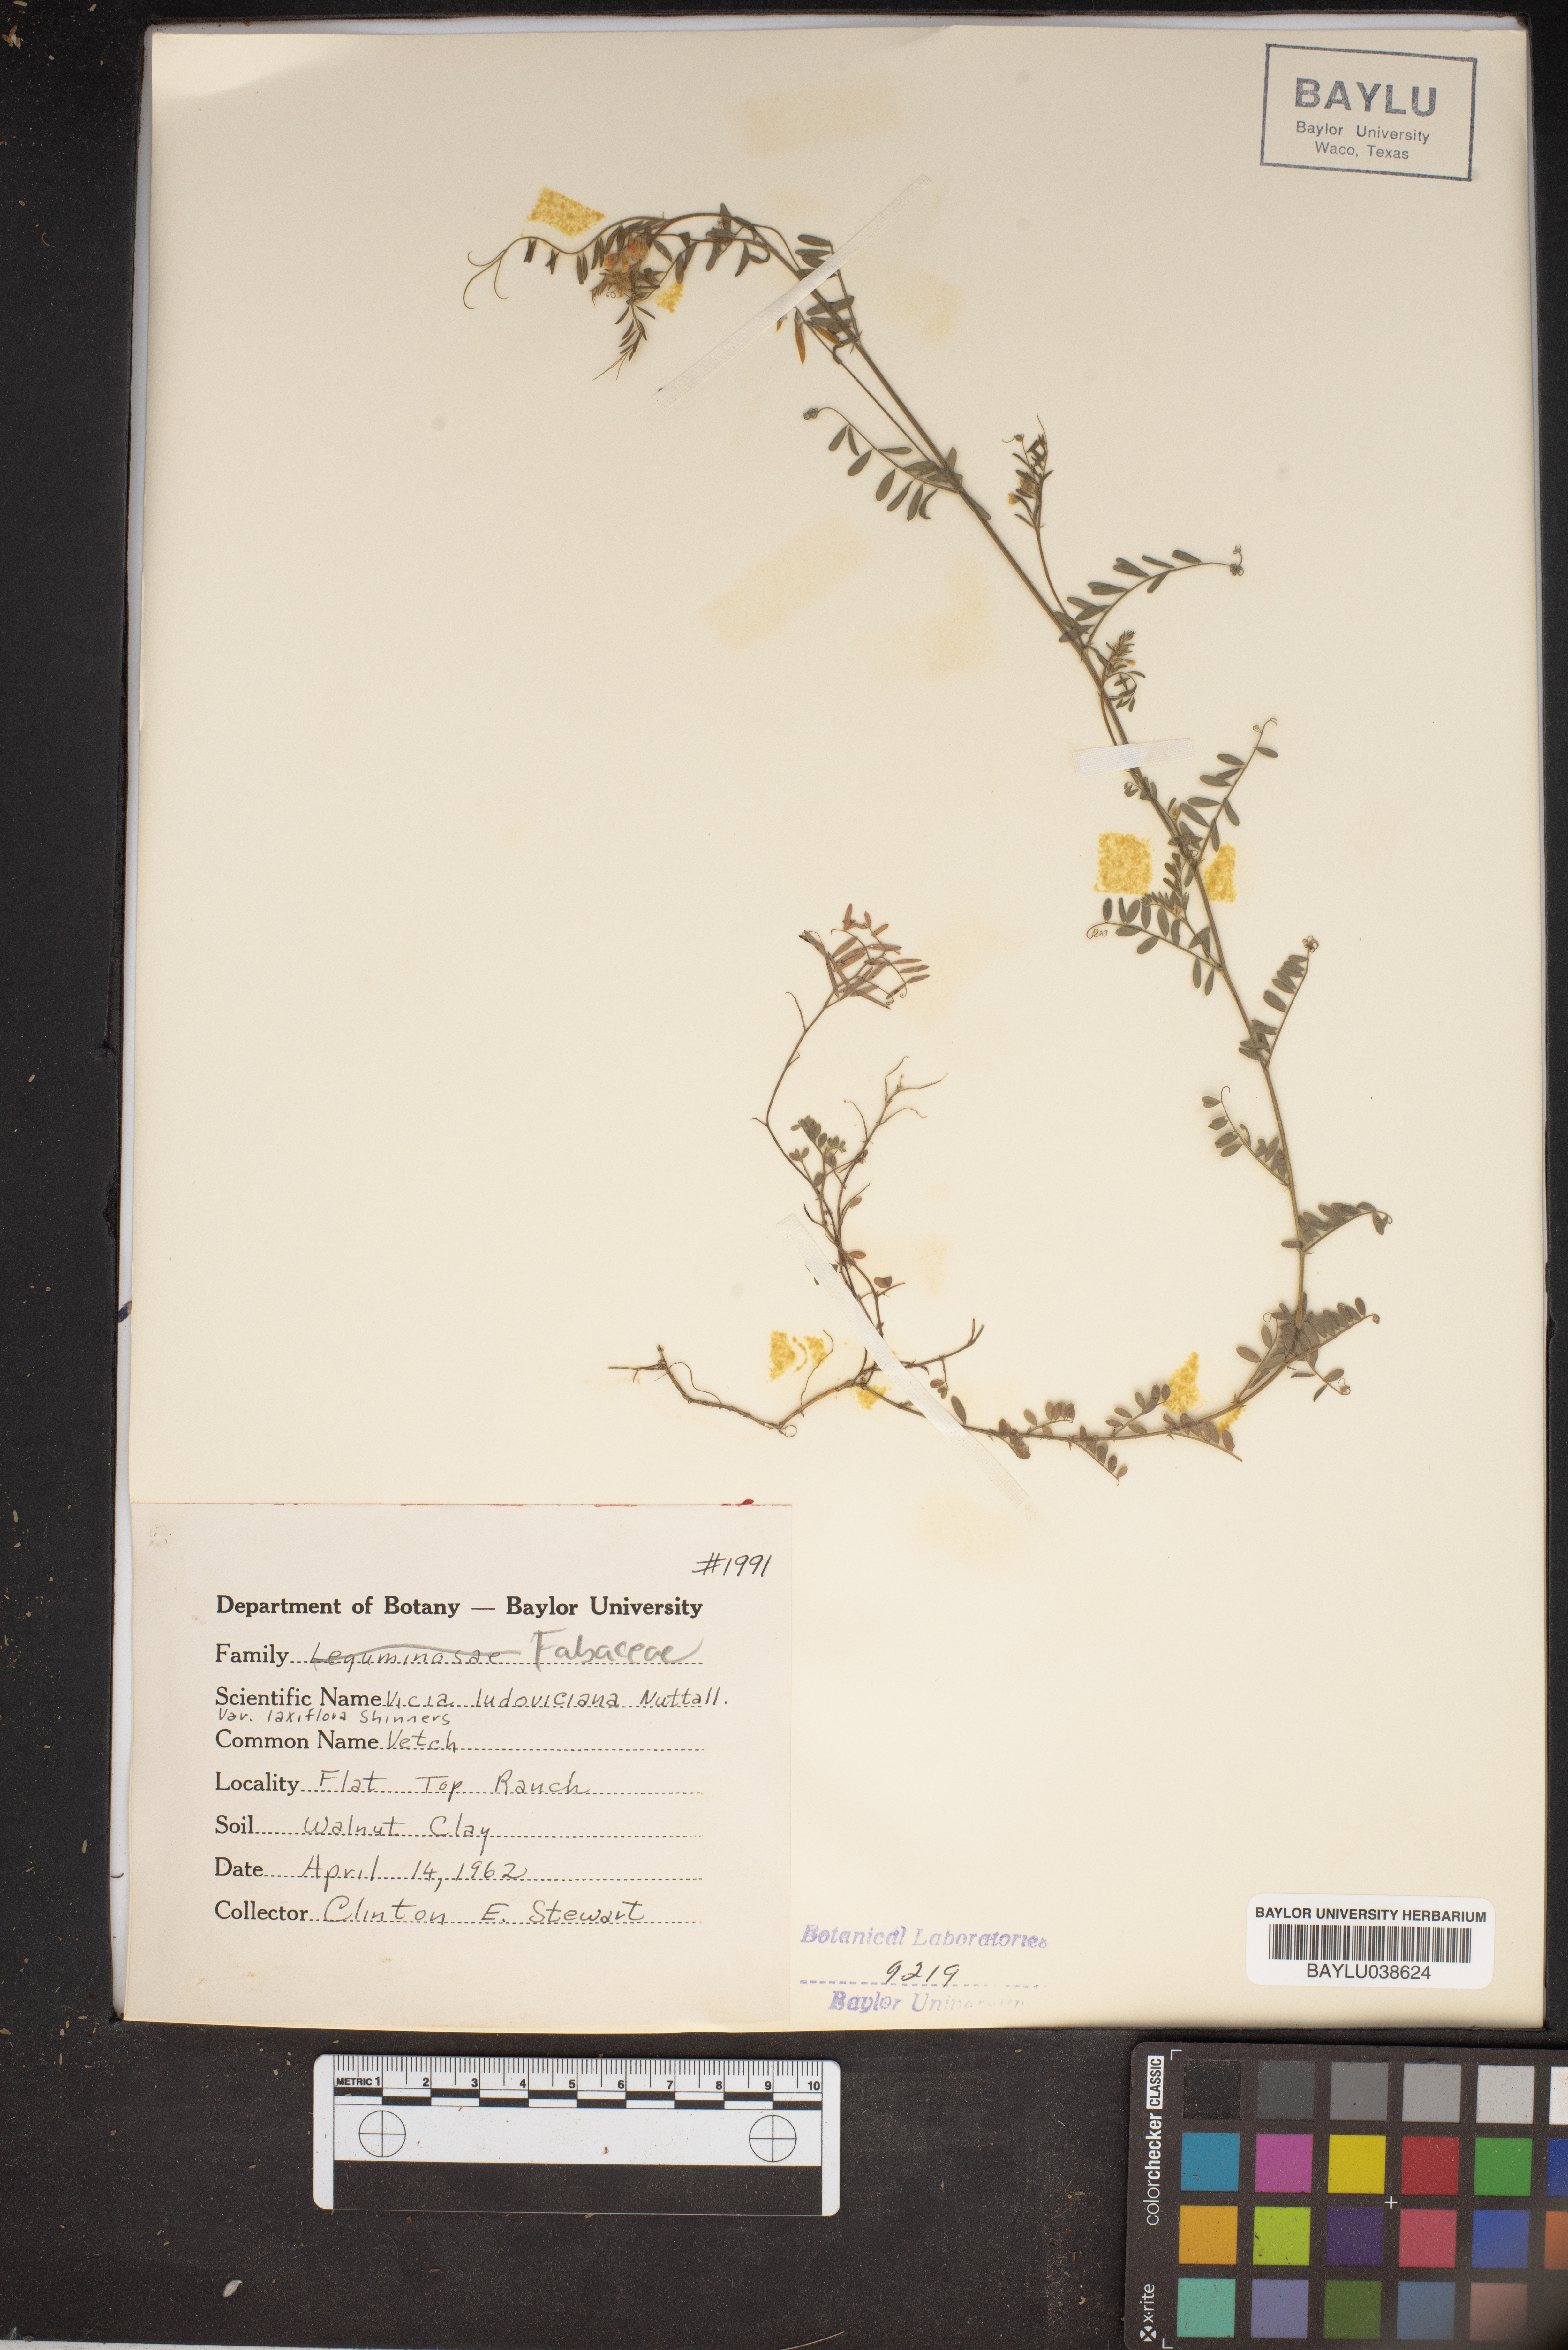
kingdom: Plantae
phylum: Tracheophyta
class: Magnoliopsida
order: Fabales
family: Fabaceae
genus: Vicia
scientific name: Vicia ludoviciana
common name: Louisiana vetch
